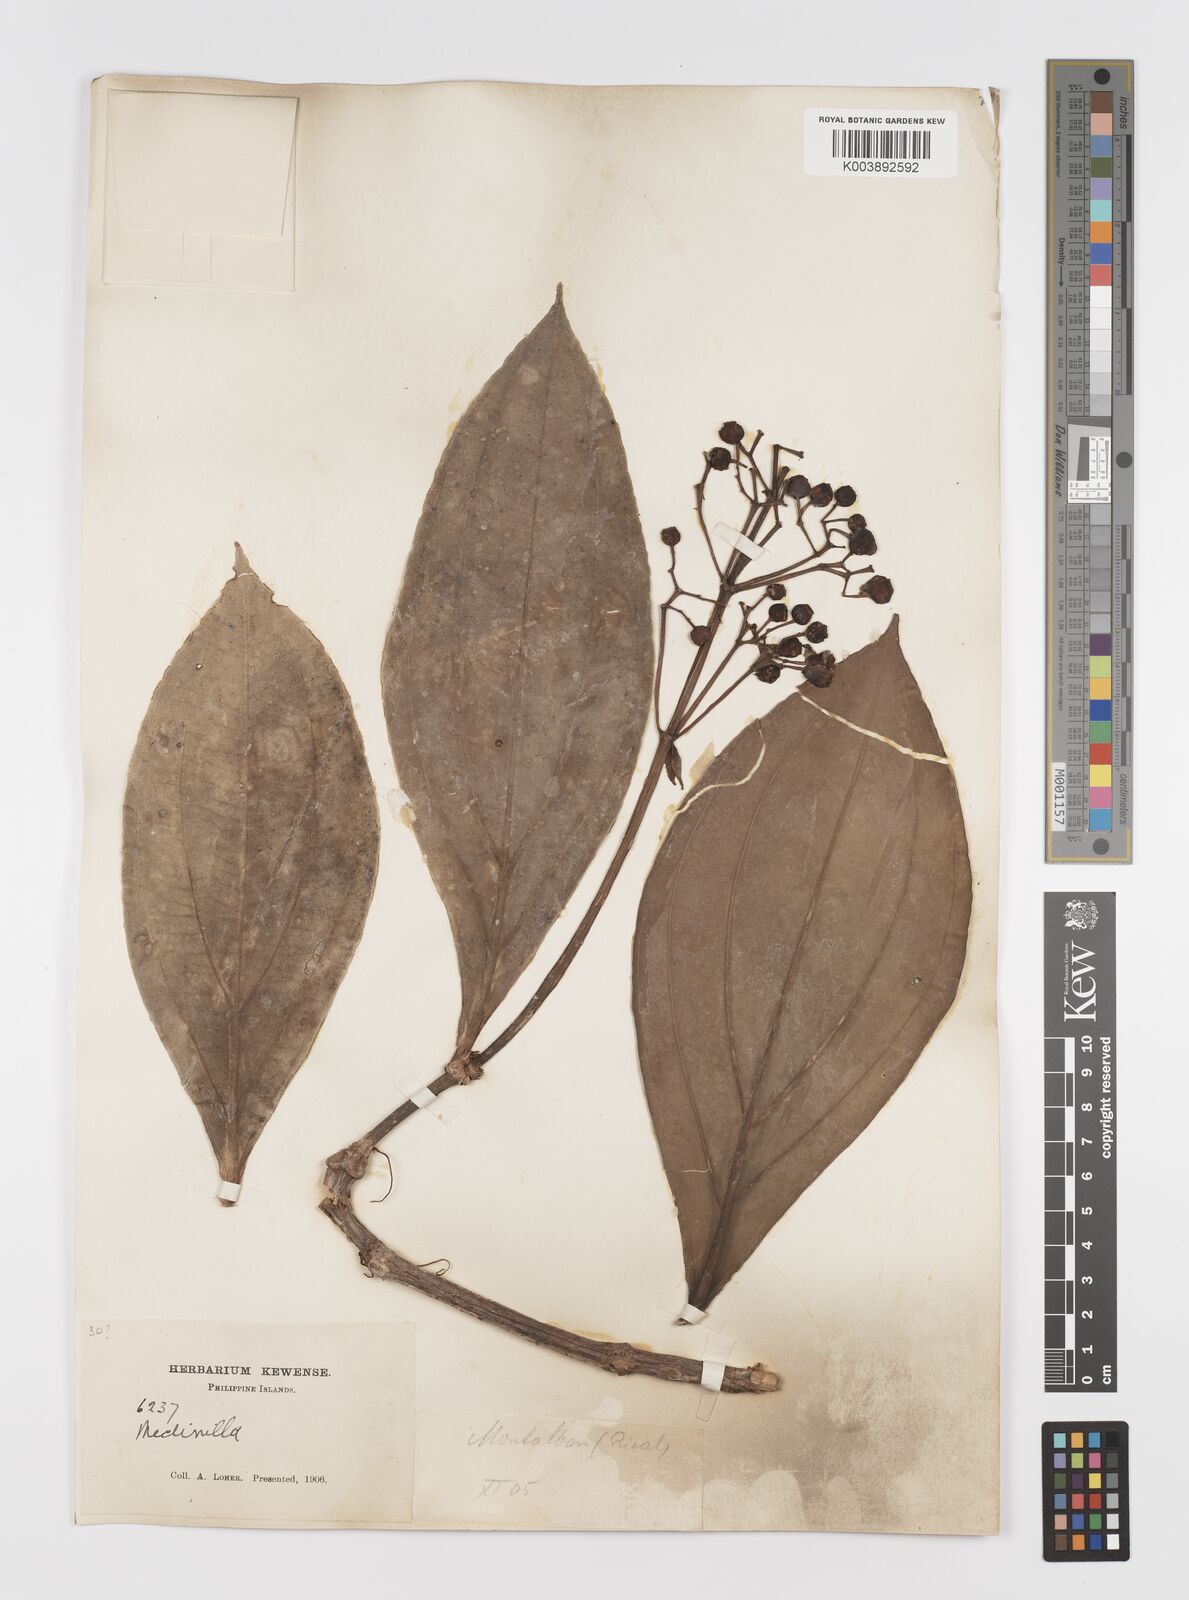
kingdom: Plantae
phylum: Tracheophyta
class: Magnoliopsida
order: Myrtales
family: Melastomataceae
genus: Medinilla
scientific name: Medinilla aurantiiflora
